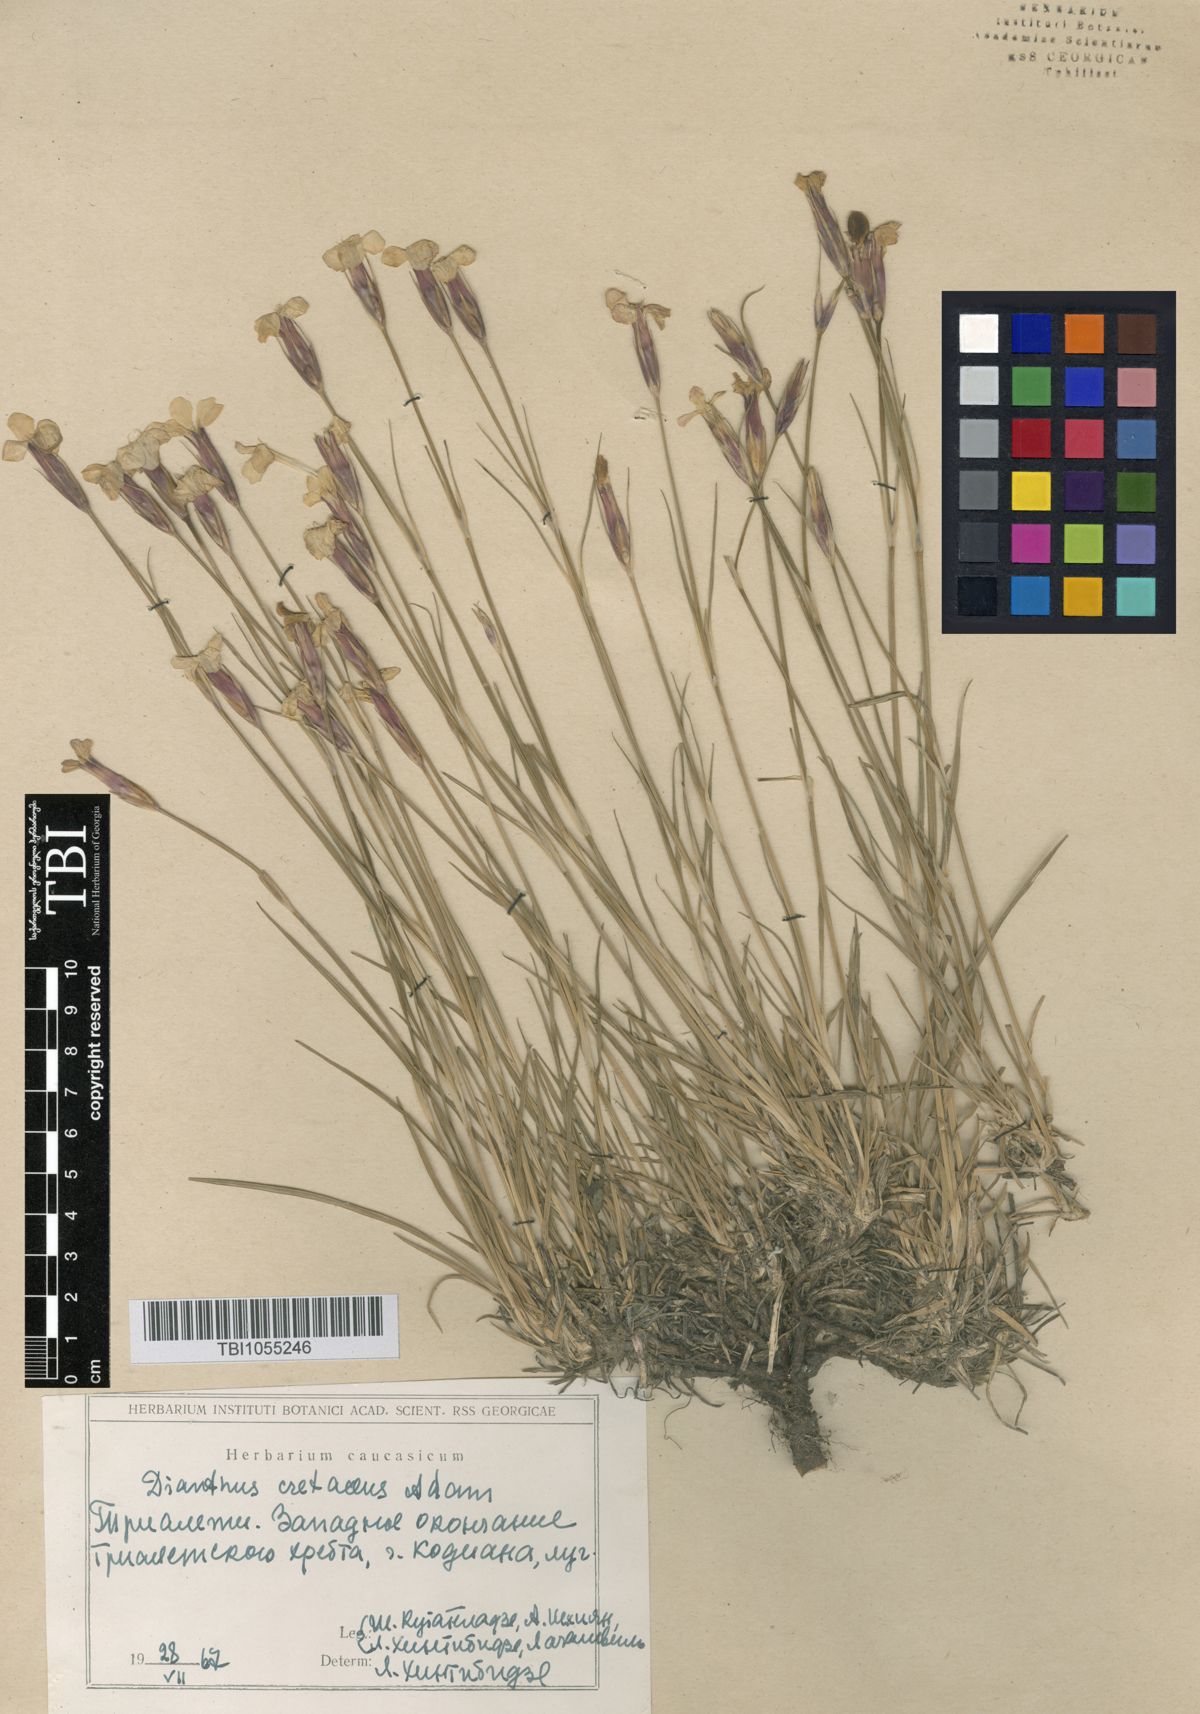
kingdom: Plantae
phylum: Tracheophyta
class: Magnoliopsida
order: Caryophyllales
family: Caryophyllaceae
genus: Dianthus
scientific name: Dianthus cretaceus
